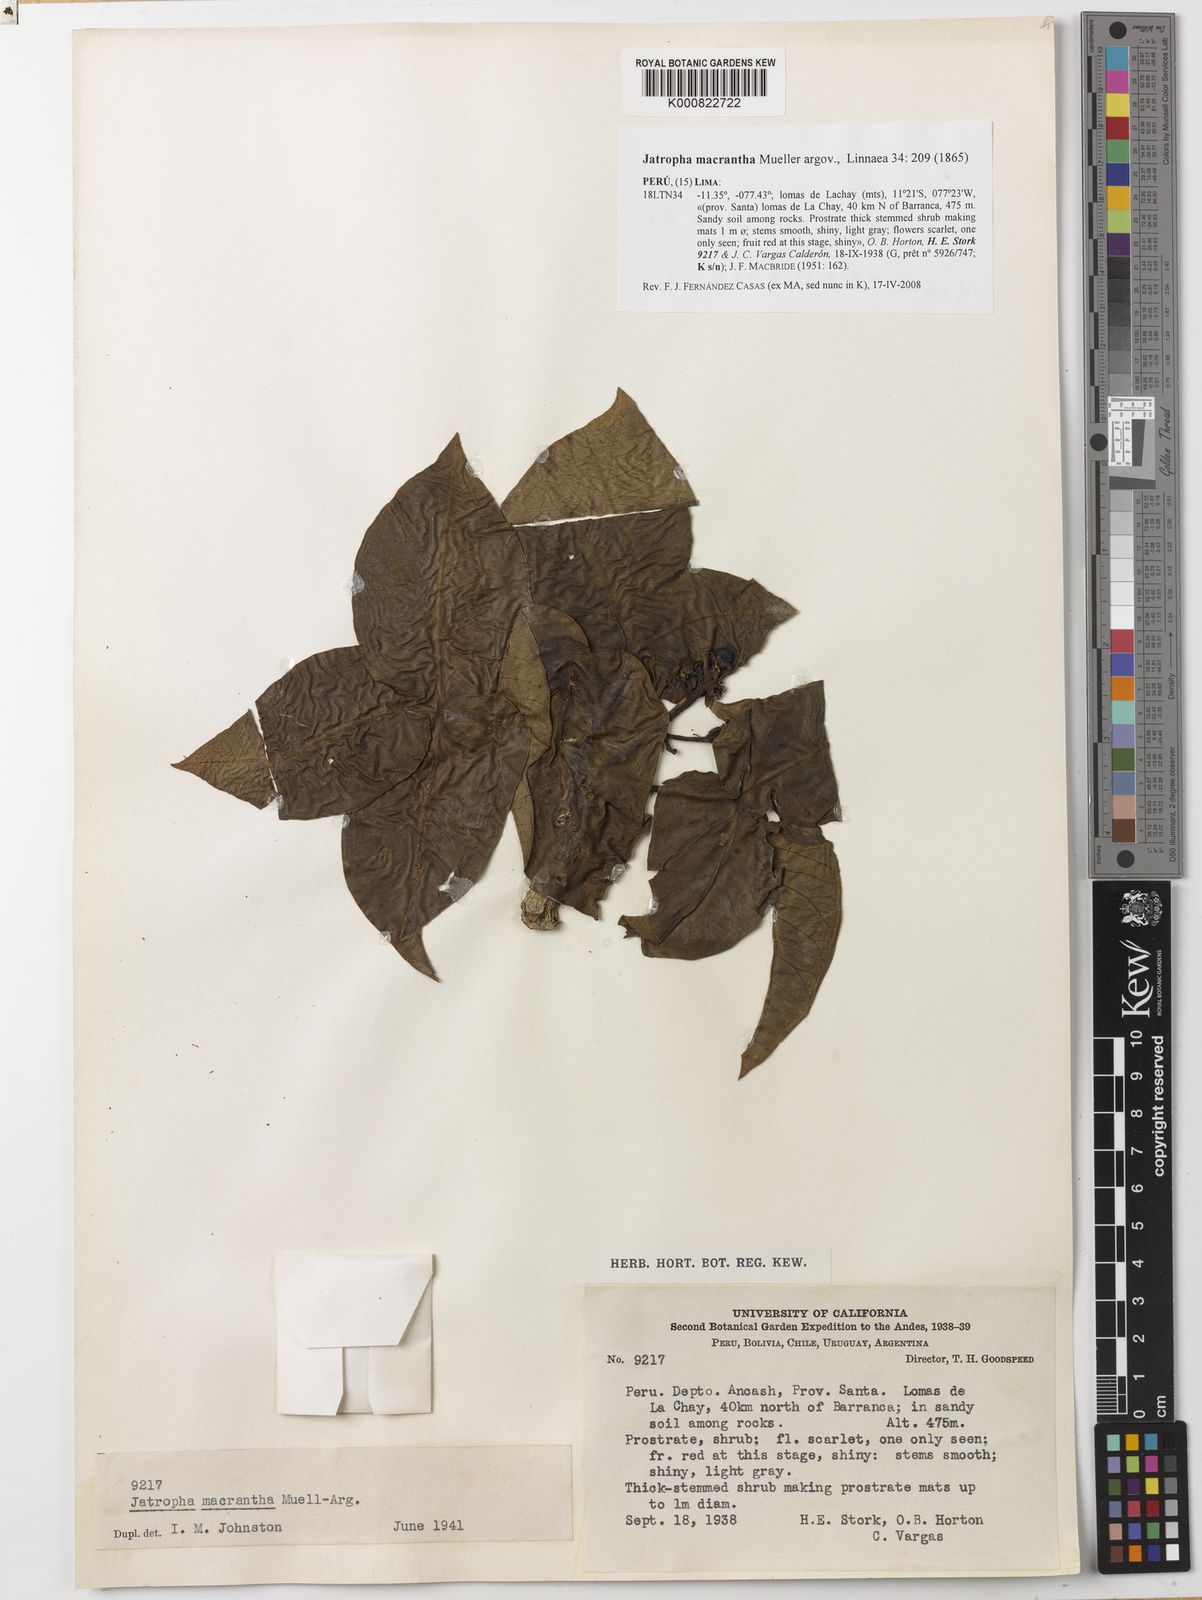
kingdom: Plantae
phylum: Tracheophyta
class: Magnoliopsida
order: Malpighiales
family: Euphorbiaceae
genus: Jatropha
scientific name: Jatropha
